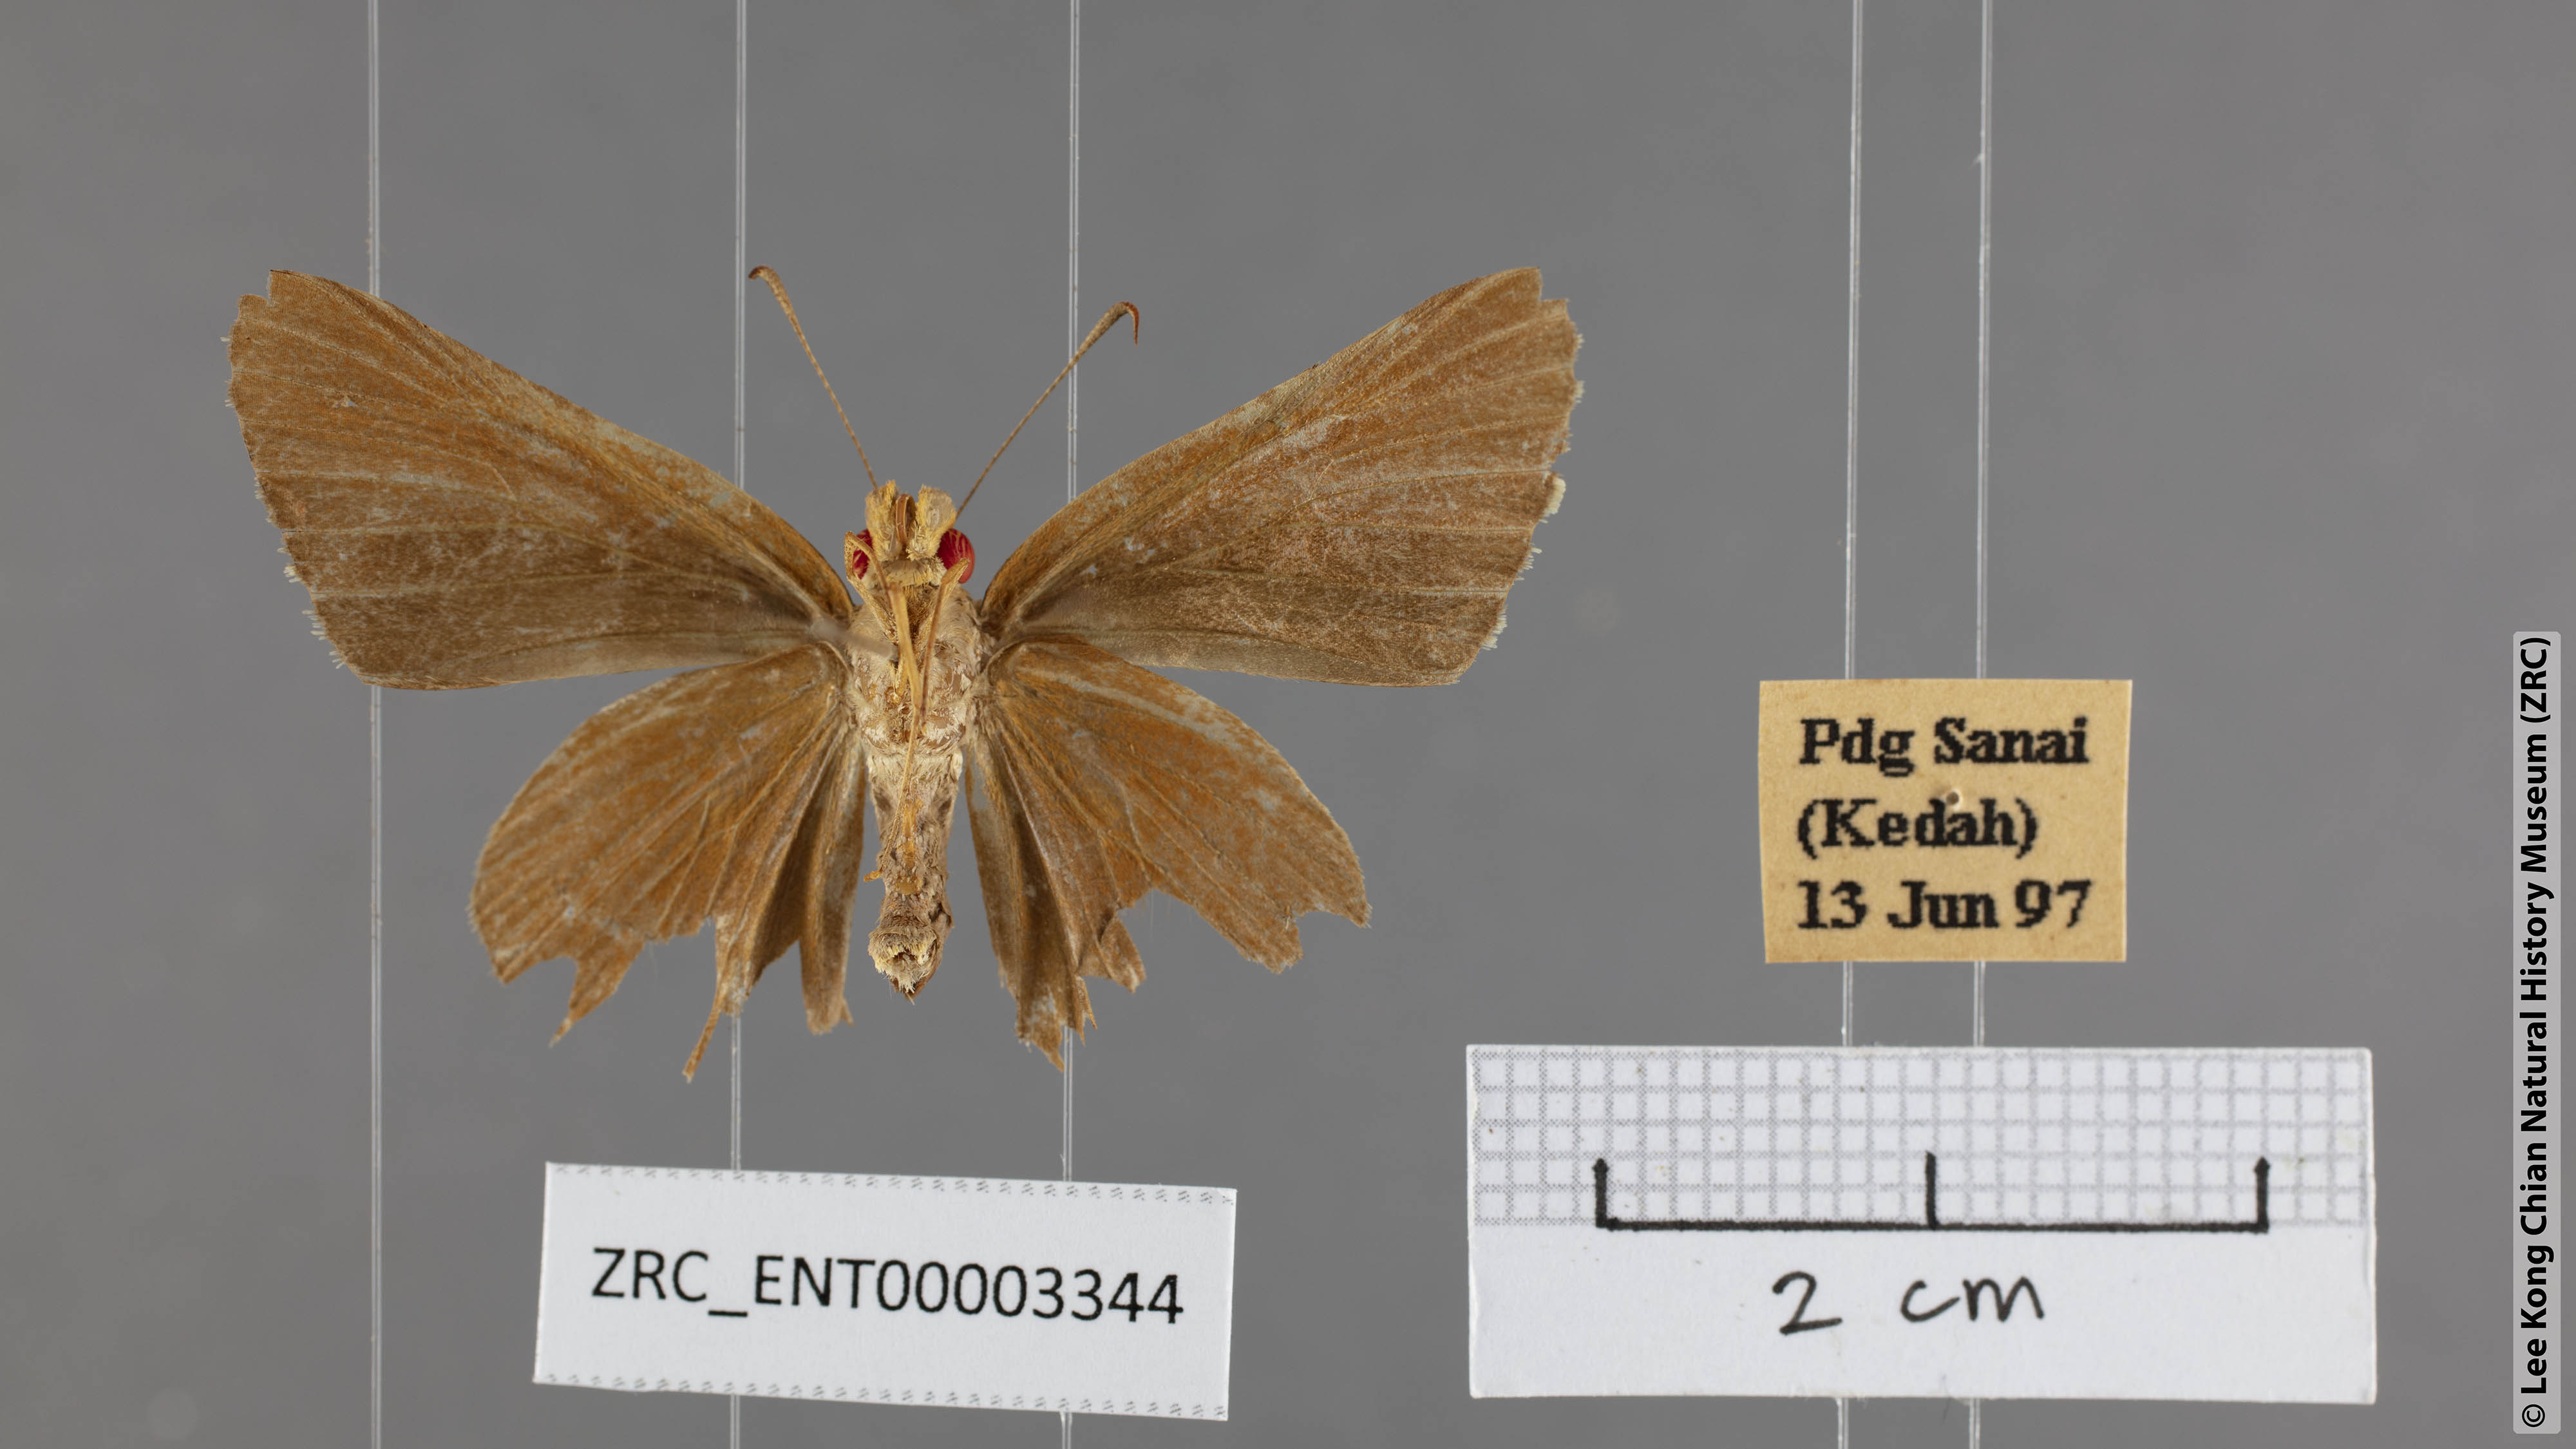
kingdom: Animalia
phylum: Arthropoda
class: Insecta
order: Lepidoptera
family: Hesperiidae
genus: Matapa
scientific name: Matapa
